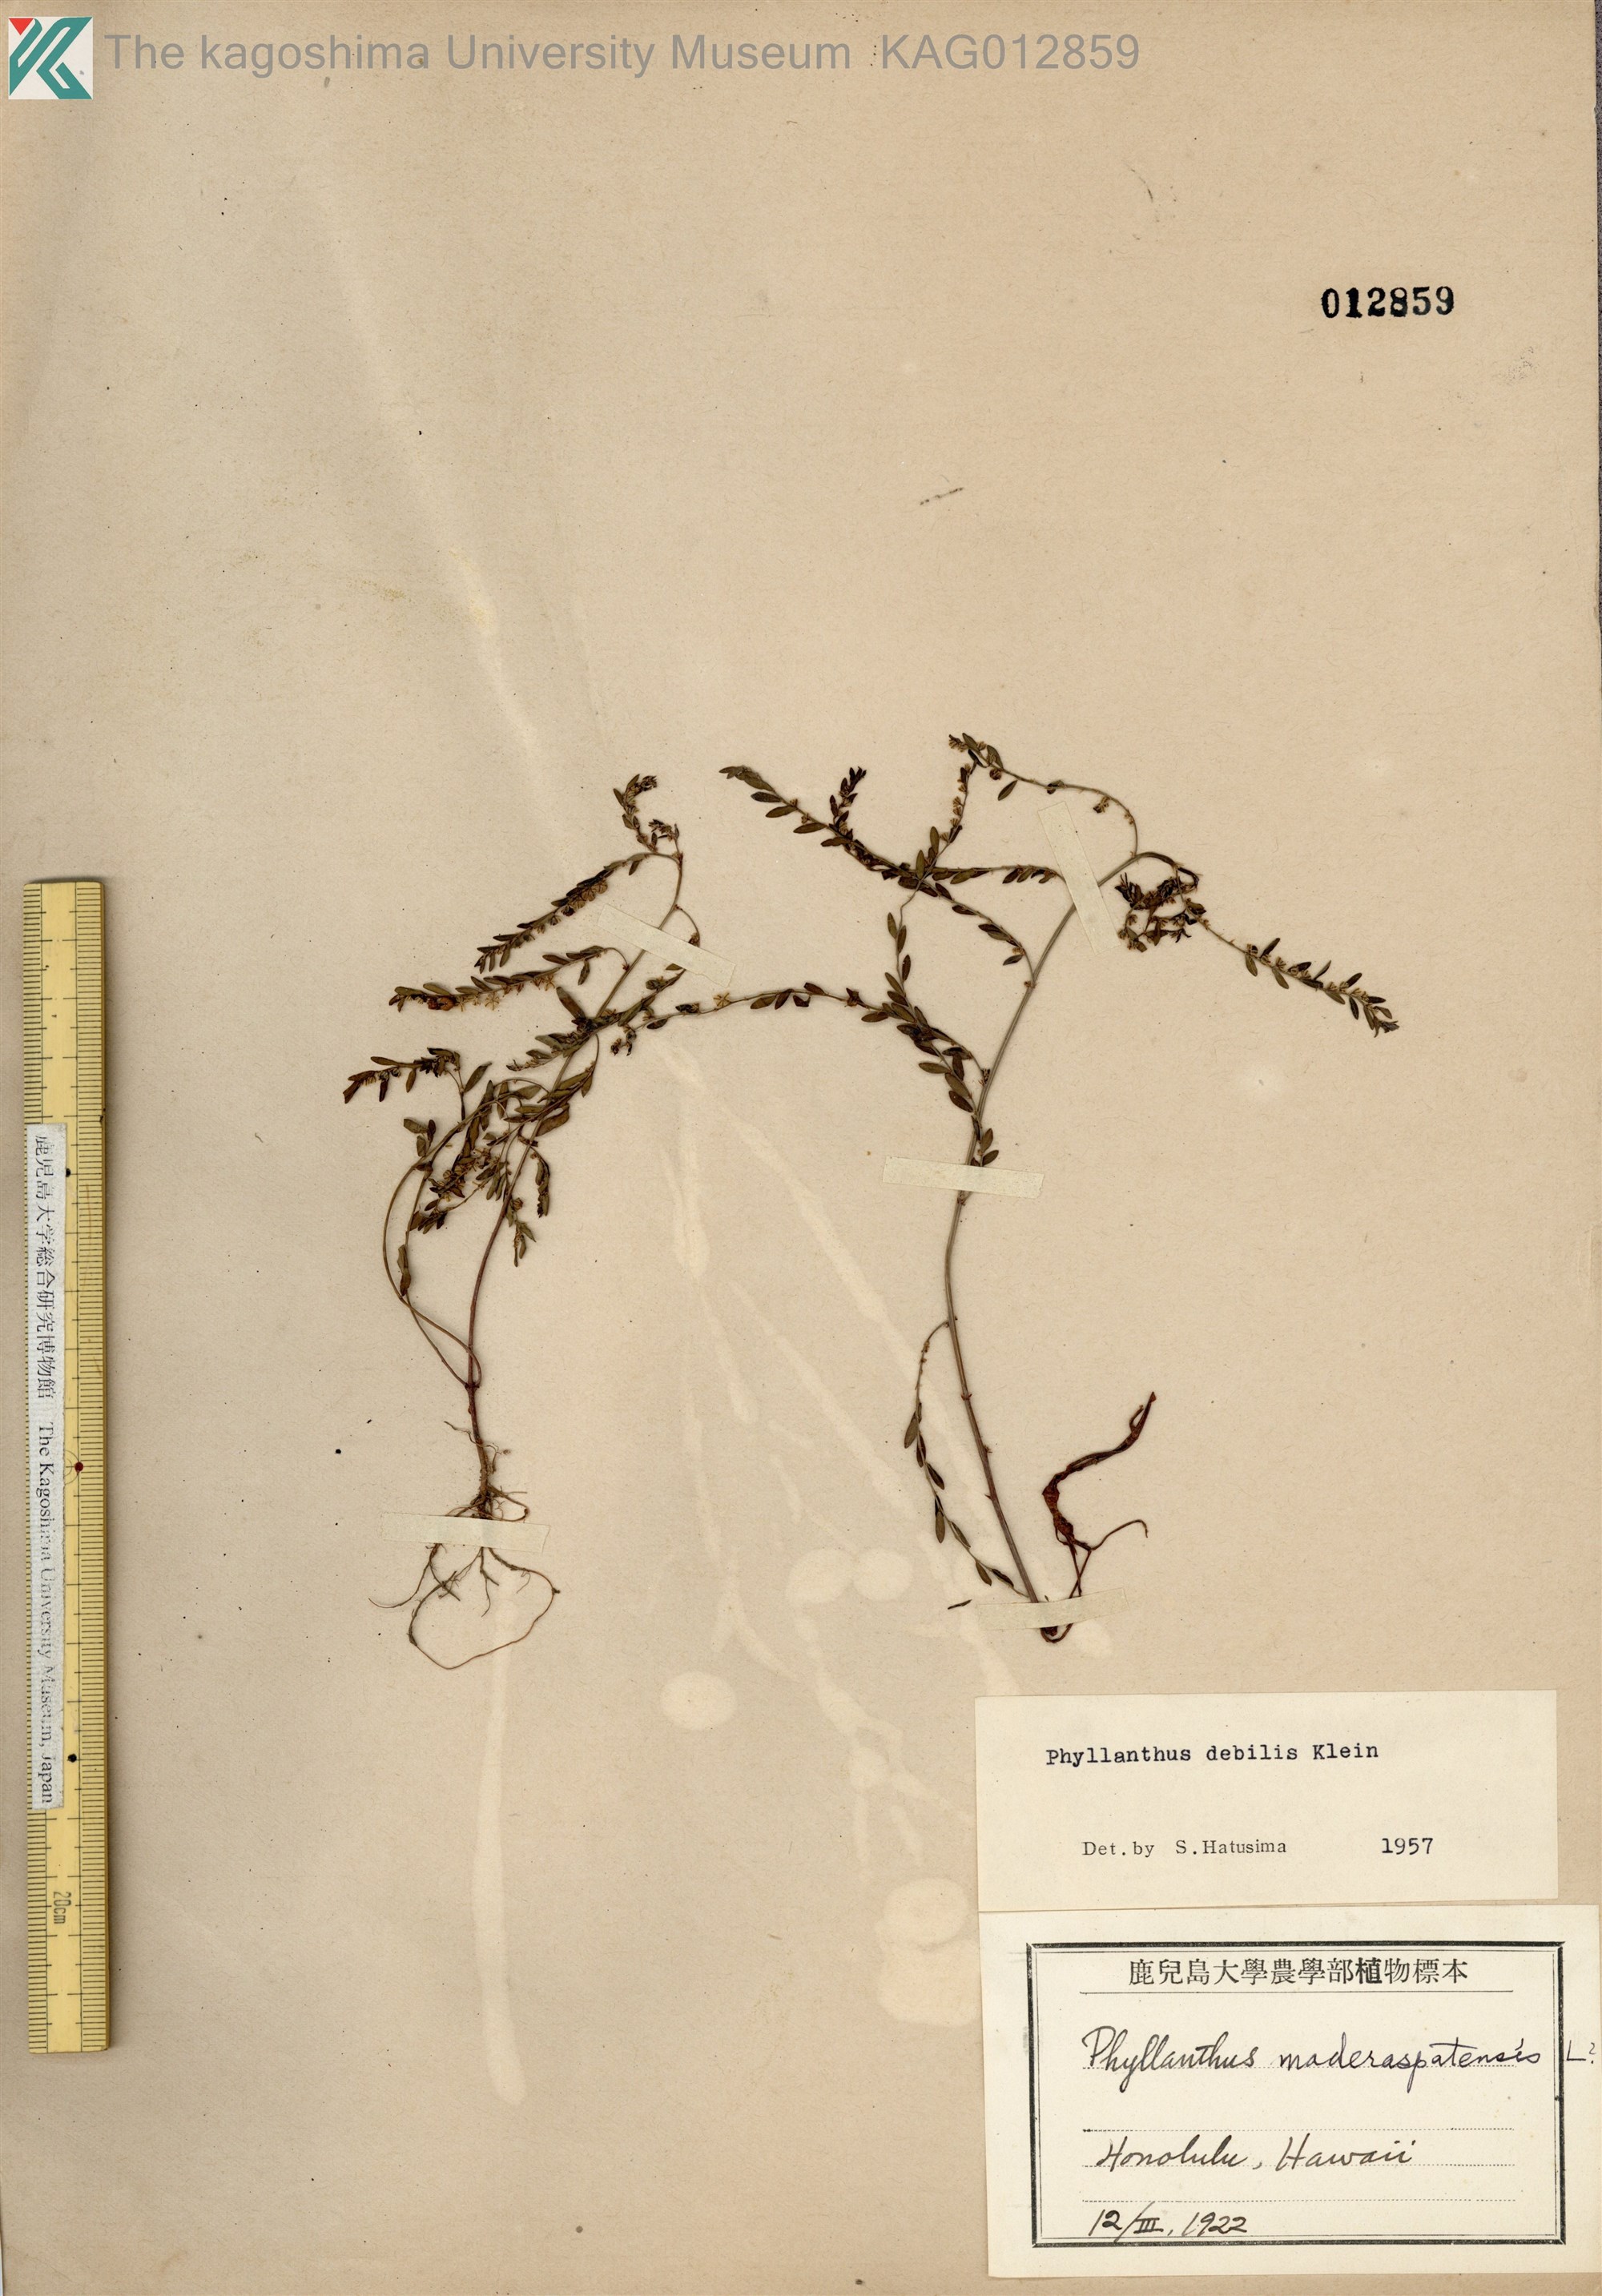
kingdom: Plantae
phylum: Tracheophyta
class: Magnoliopsida
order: Malpighiales
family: Phyllanthaceae
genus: Phyllanthus
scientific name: Phyllanthus debilis
